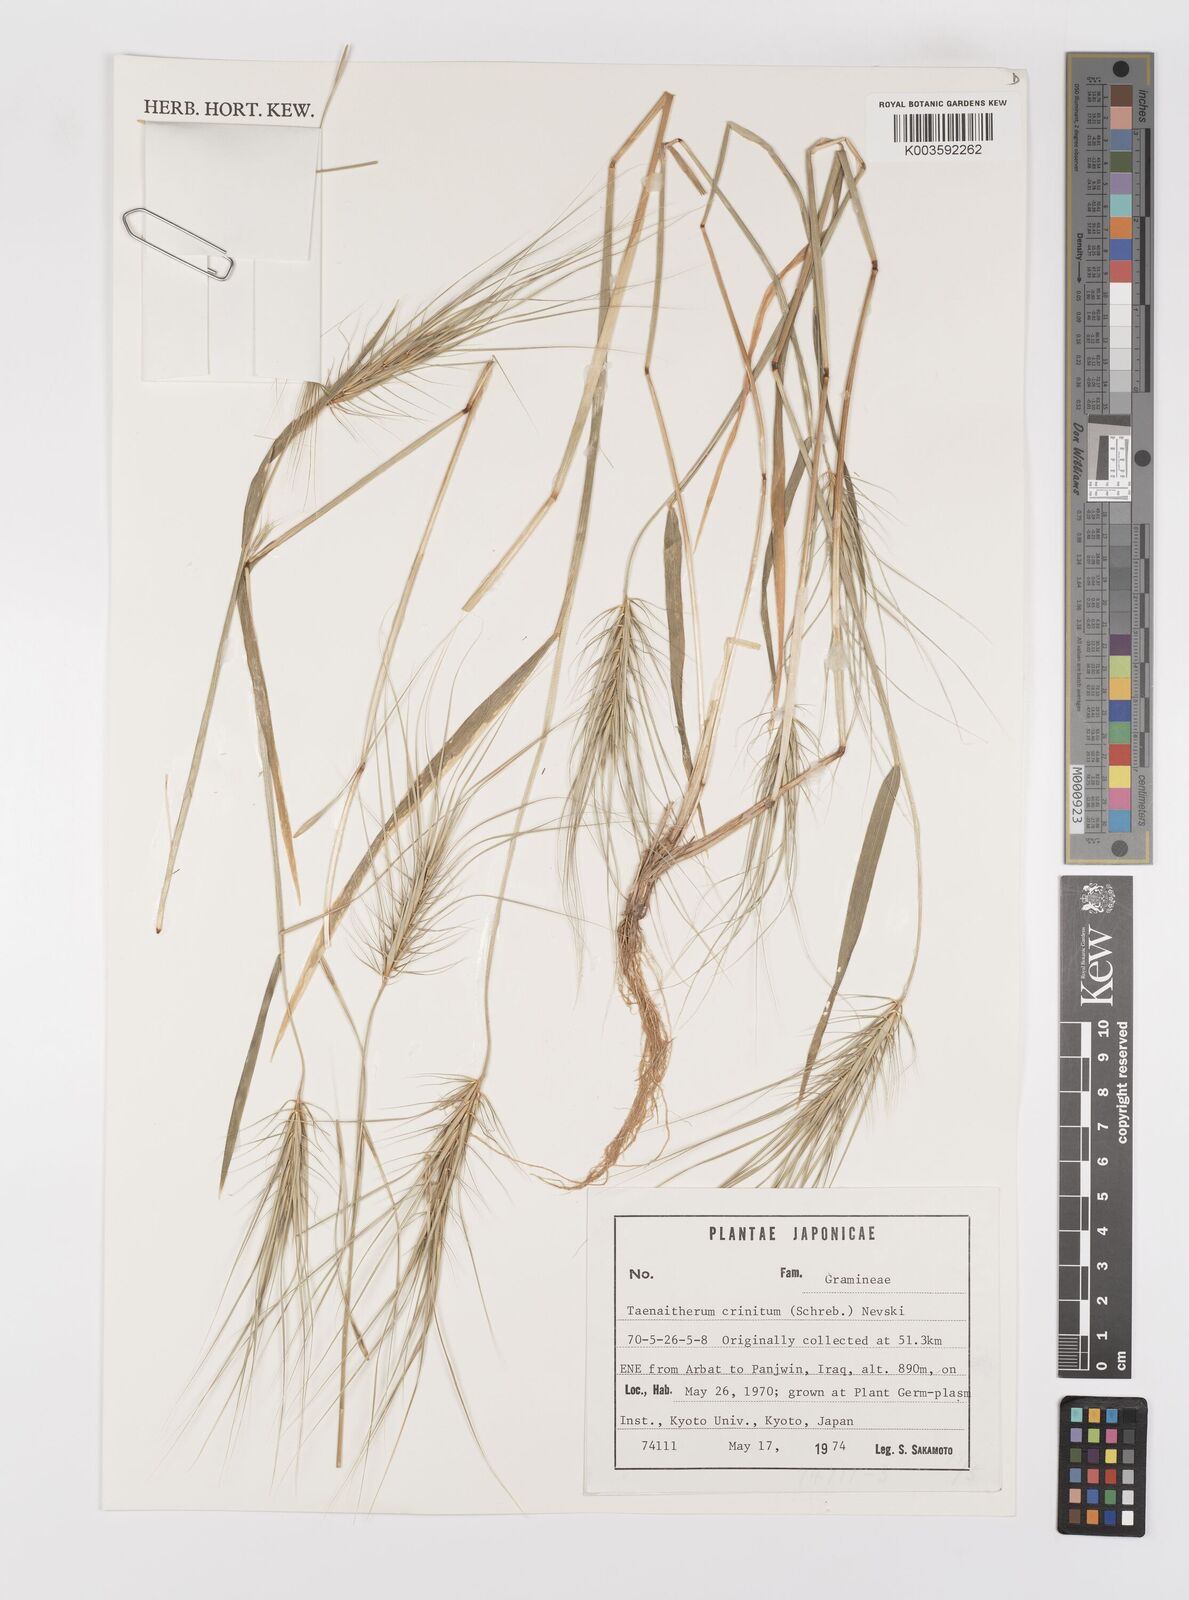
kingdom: Plantae
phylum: Tracheophyta
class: Liliopsida
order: Poales
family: Poaceae
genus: Taeniatherum
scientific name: Taeniatherum caput-medusae
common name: Medusahead
